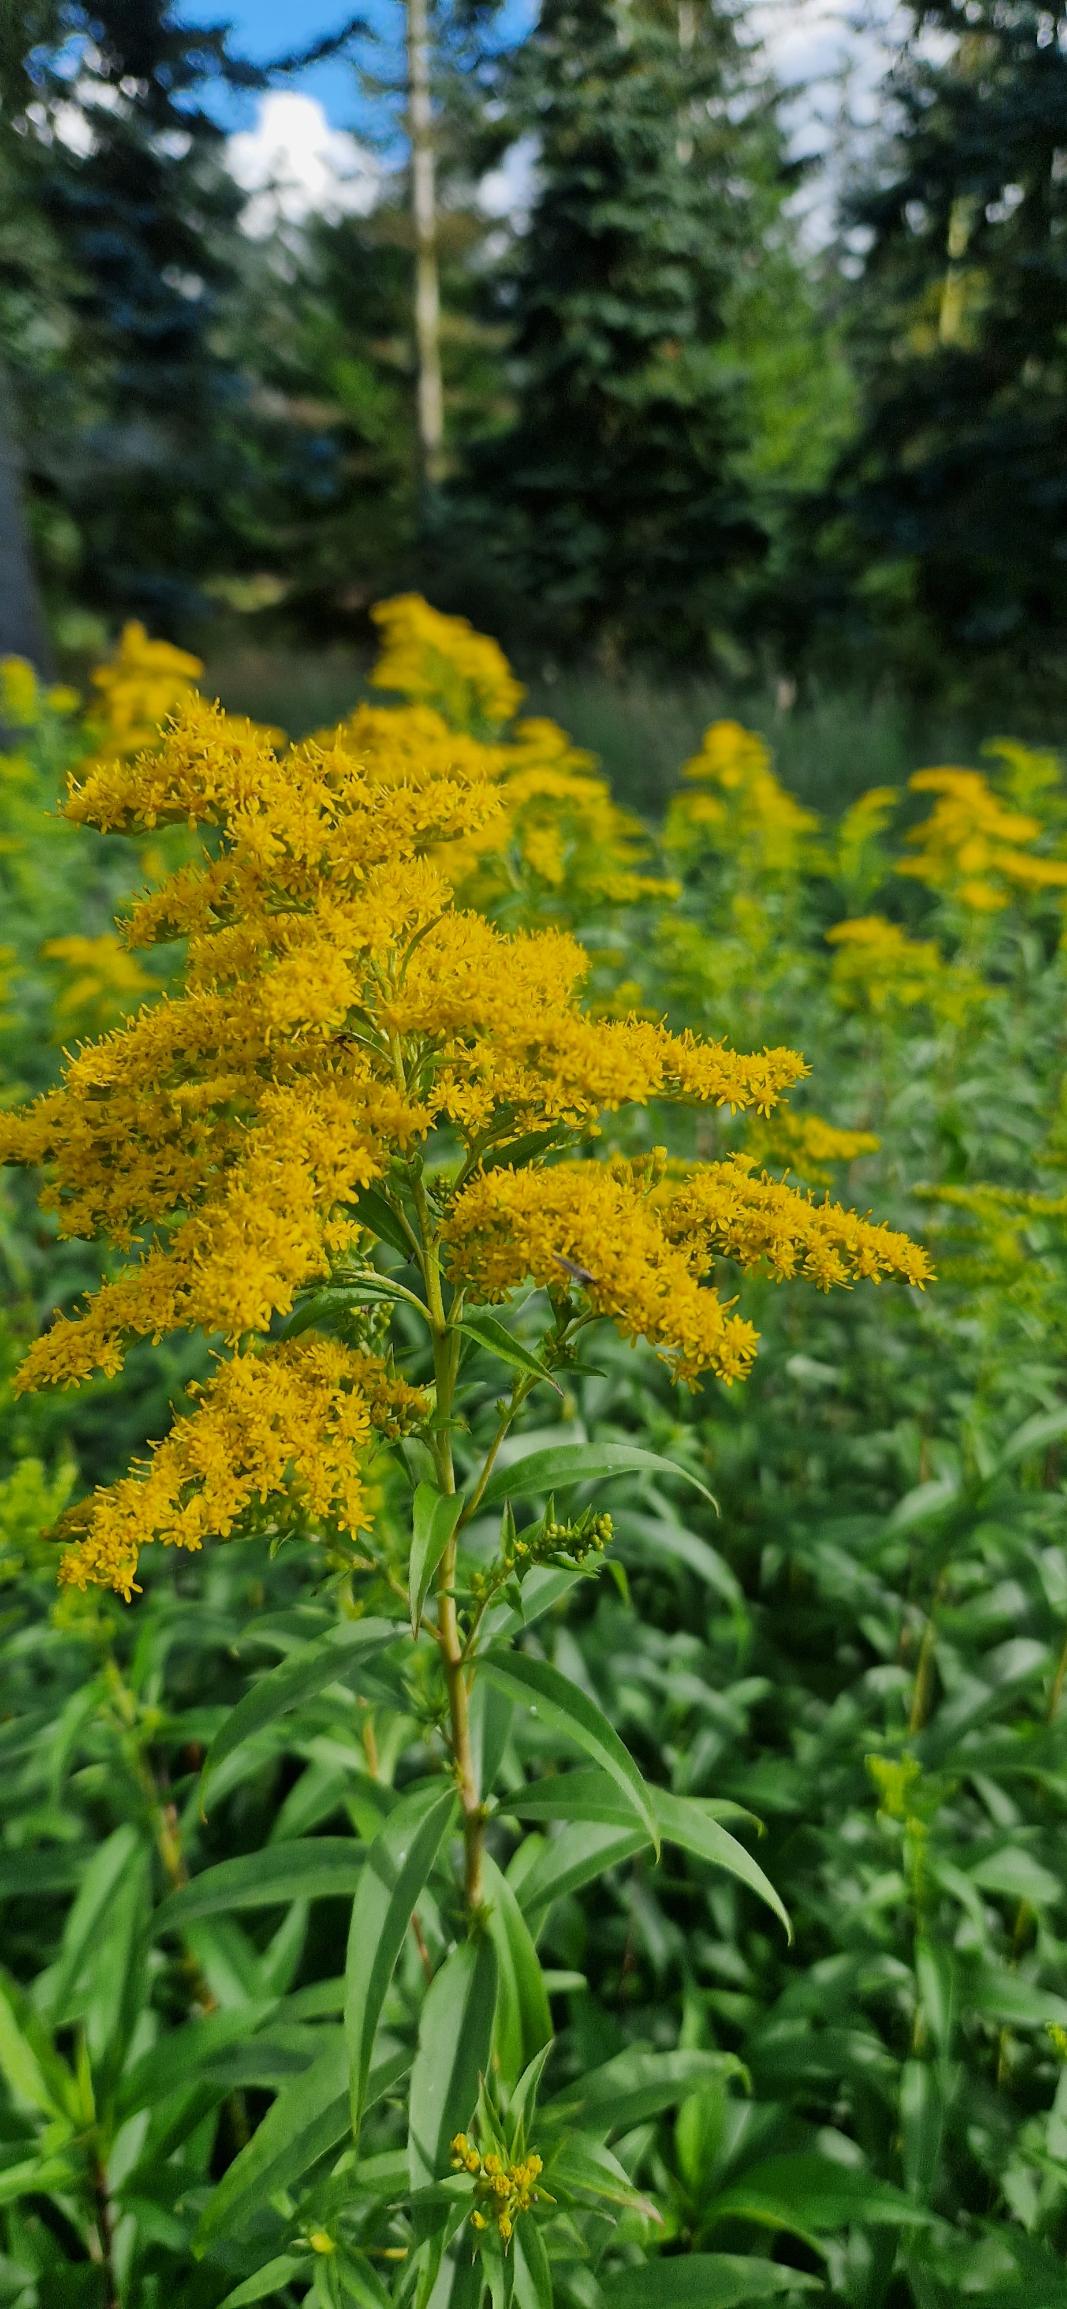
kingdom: Plantae
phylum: Tracheophyta
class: Magnoliopsida
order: Asterales
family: Asteraceae
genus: Solidago
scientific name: Solidago canadensis
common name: Kanadisk gyldenris
